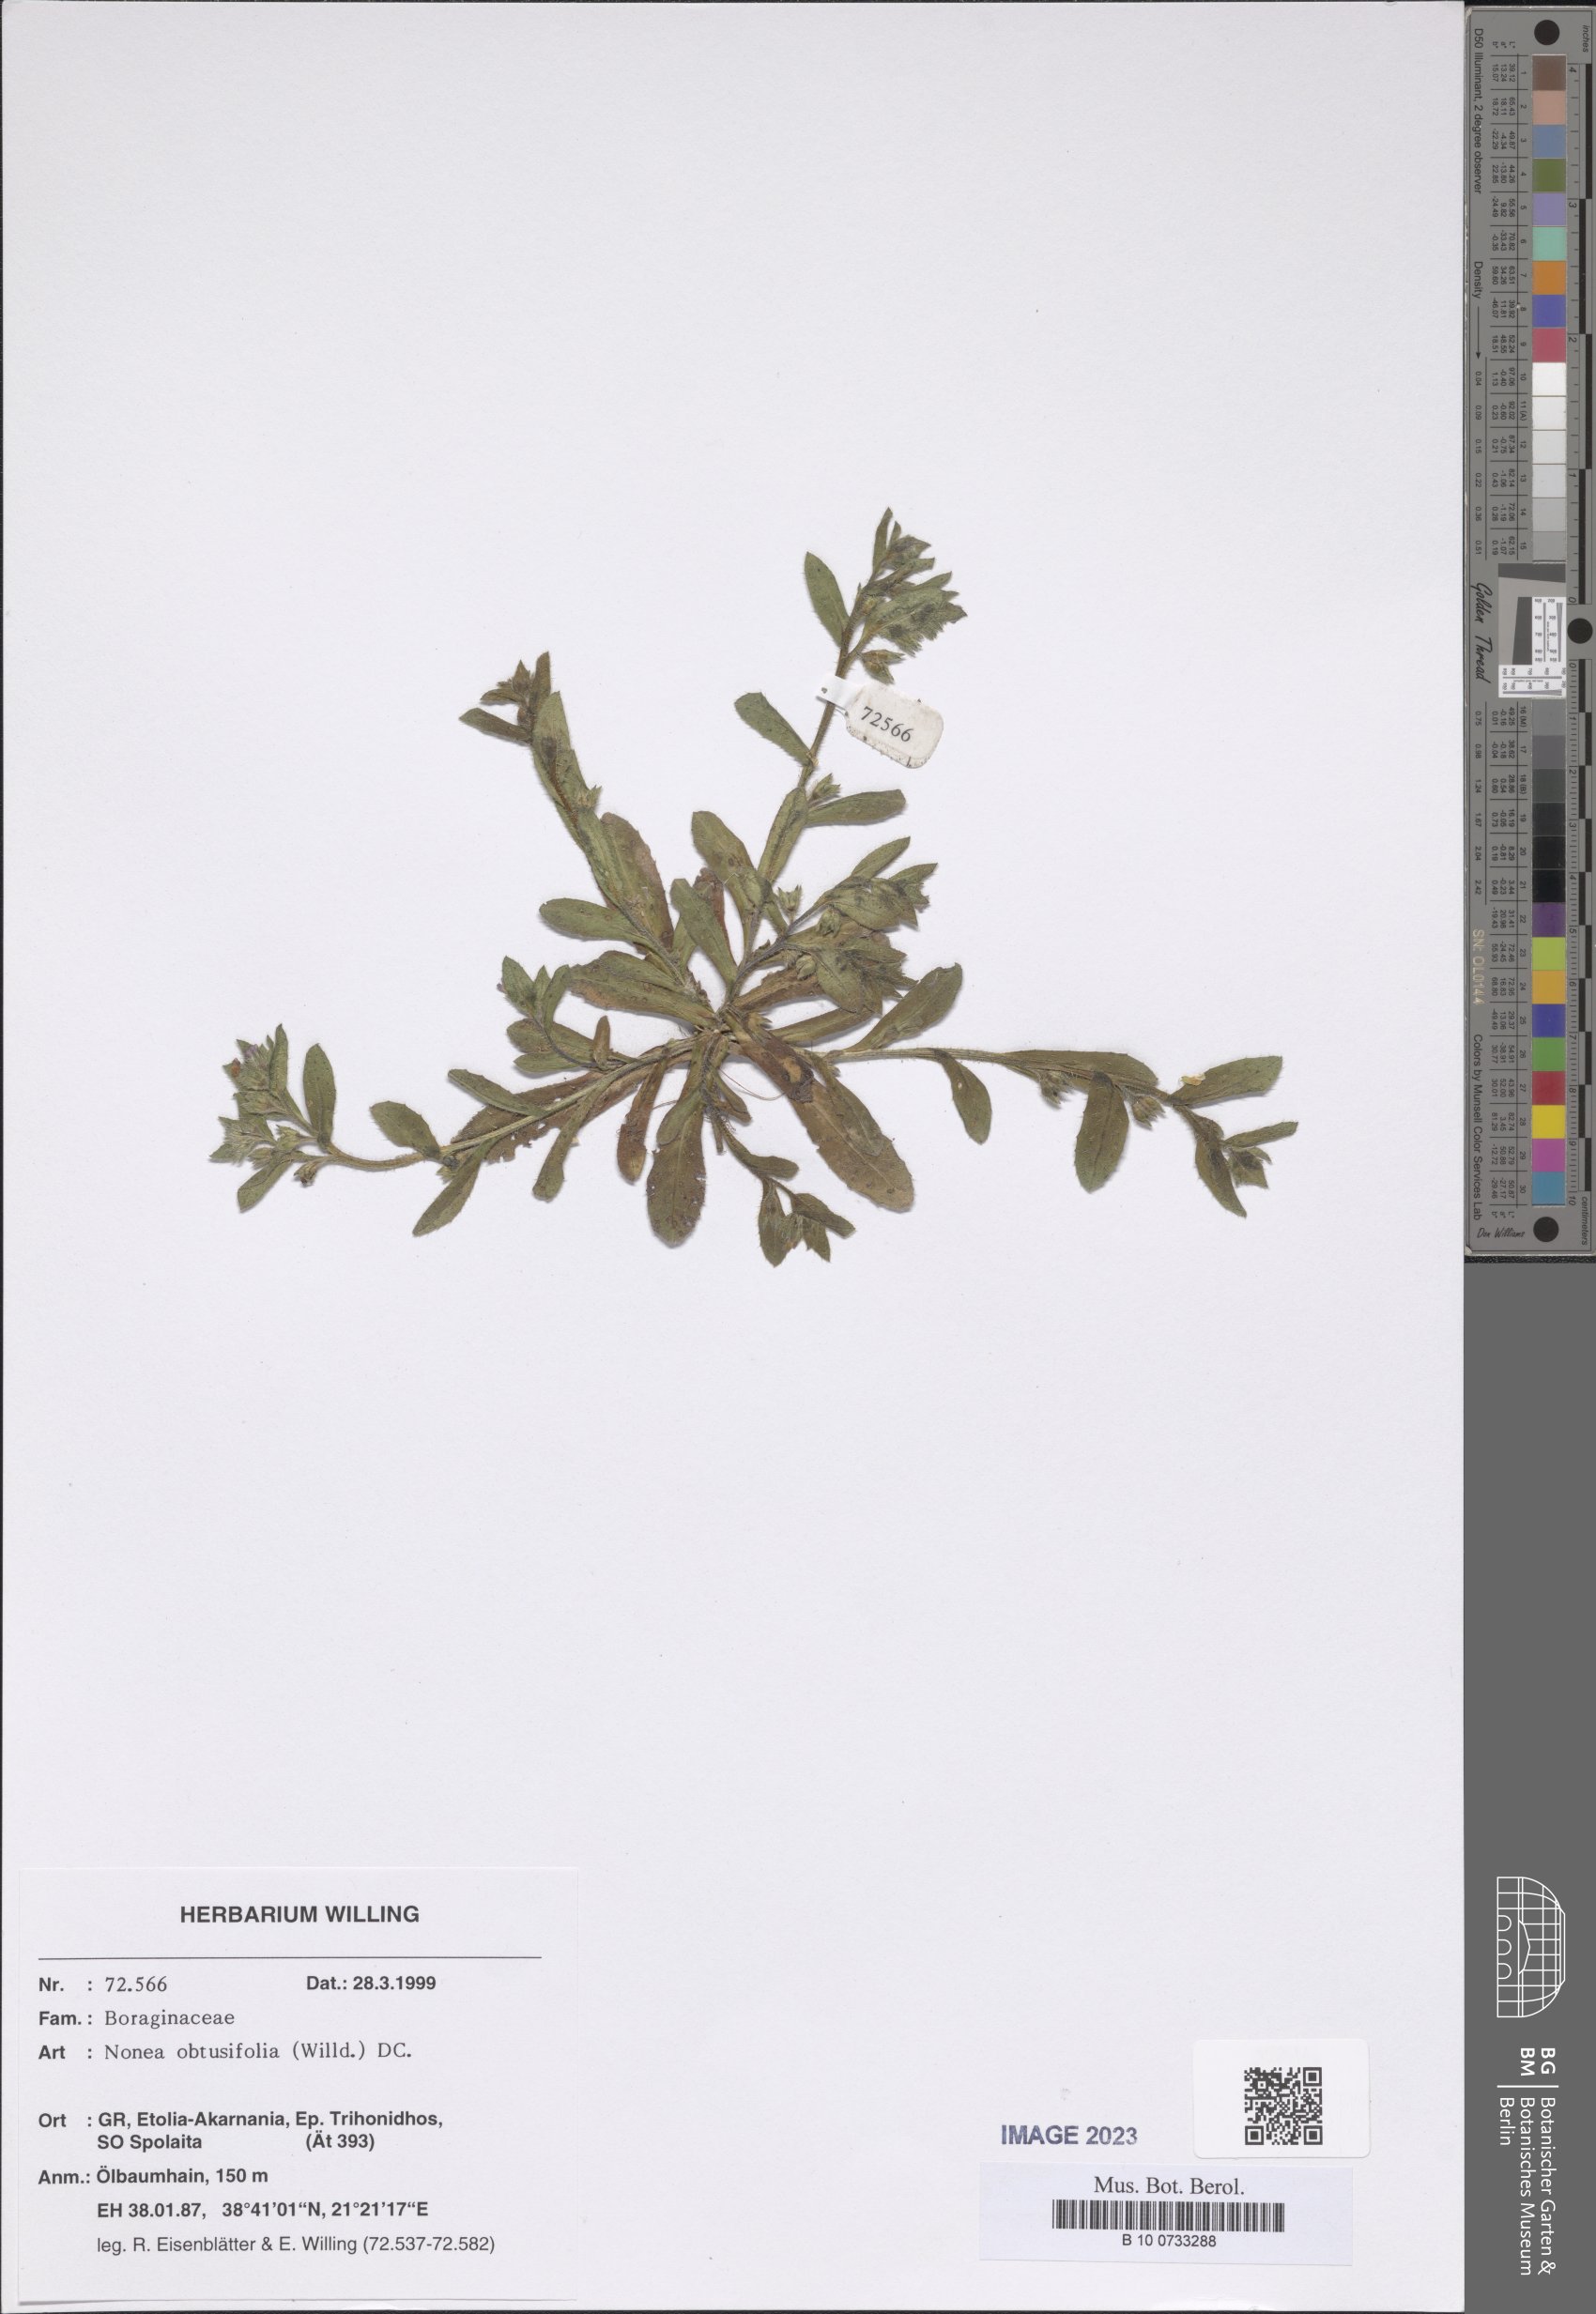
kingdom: Plantae
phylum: Tracheophyta
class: Magnoliopsida
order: Boraginales
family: Boraginaceae
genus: Melanortocarya
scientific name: Melanortocarya obtusifolia
